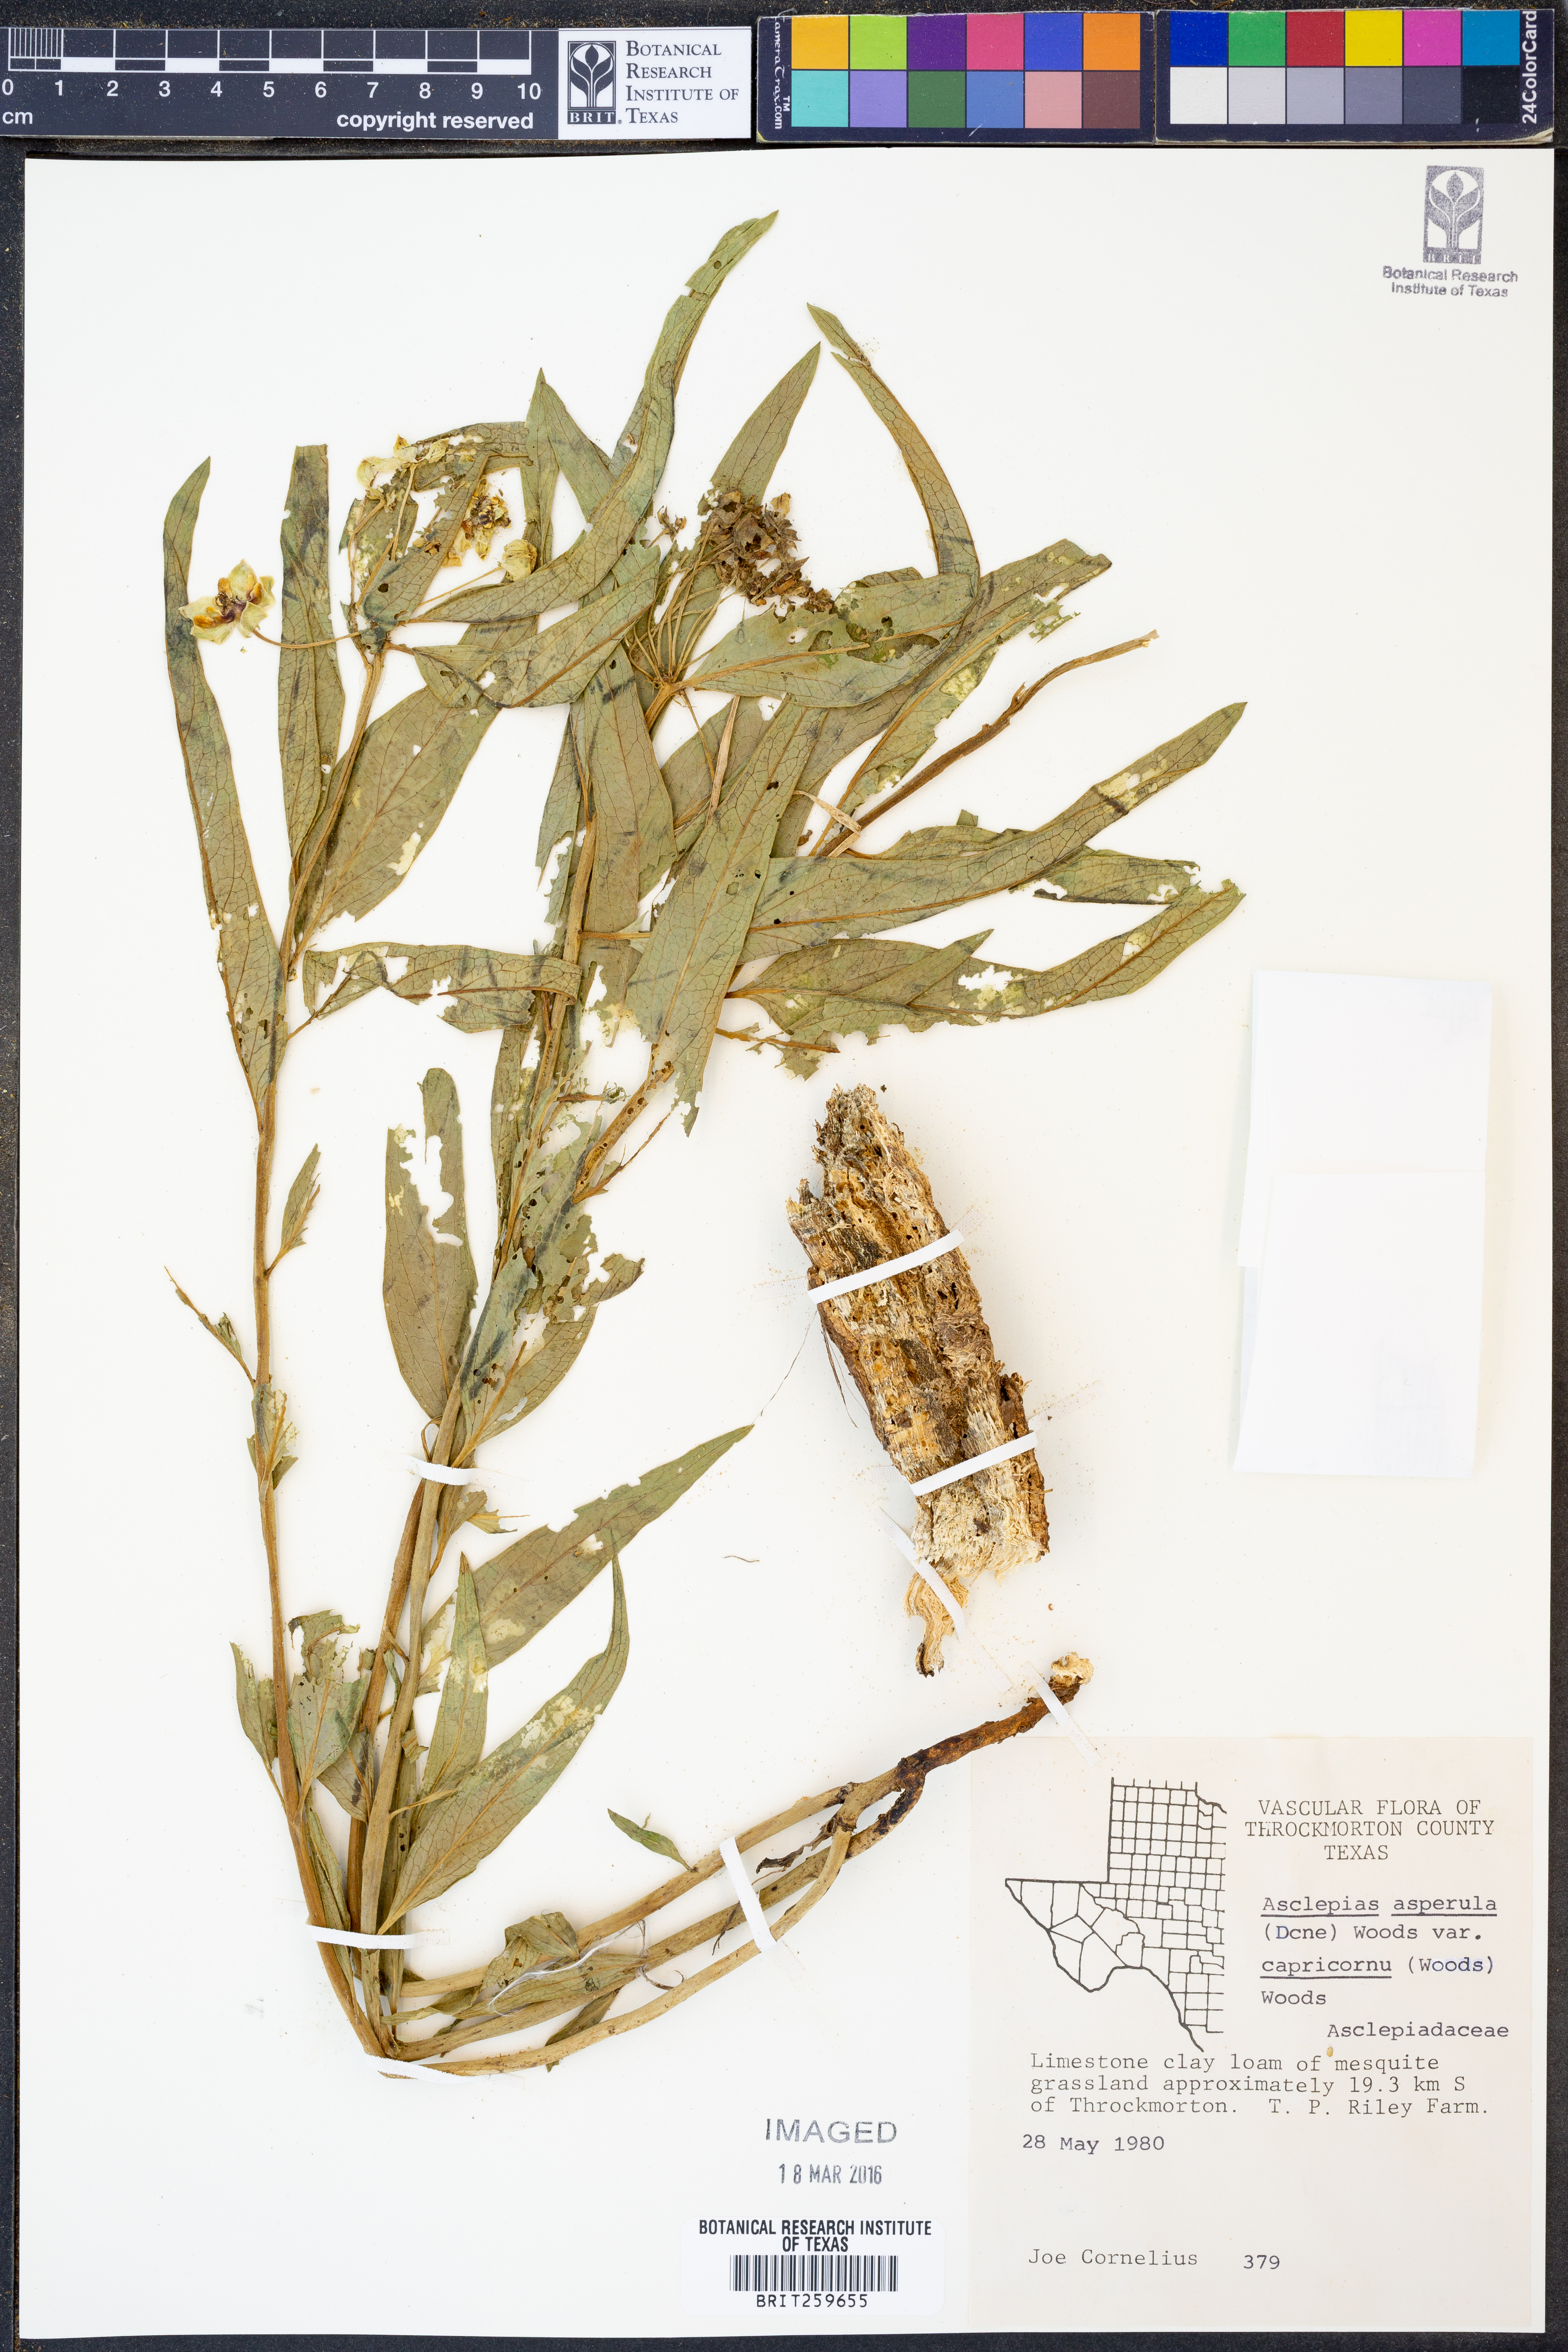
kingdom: Plantae
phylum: Tracheophyta
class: Magnoliopsida
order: Gentianales
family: Apocynaceae
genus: Asclepias
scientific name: Asclepias asperula
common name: Antelope horns
